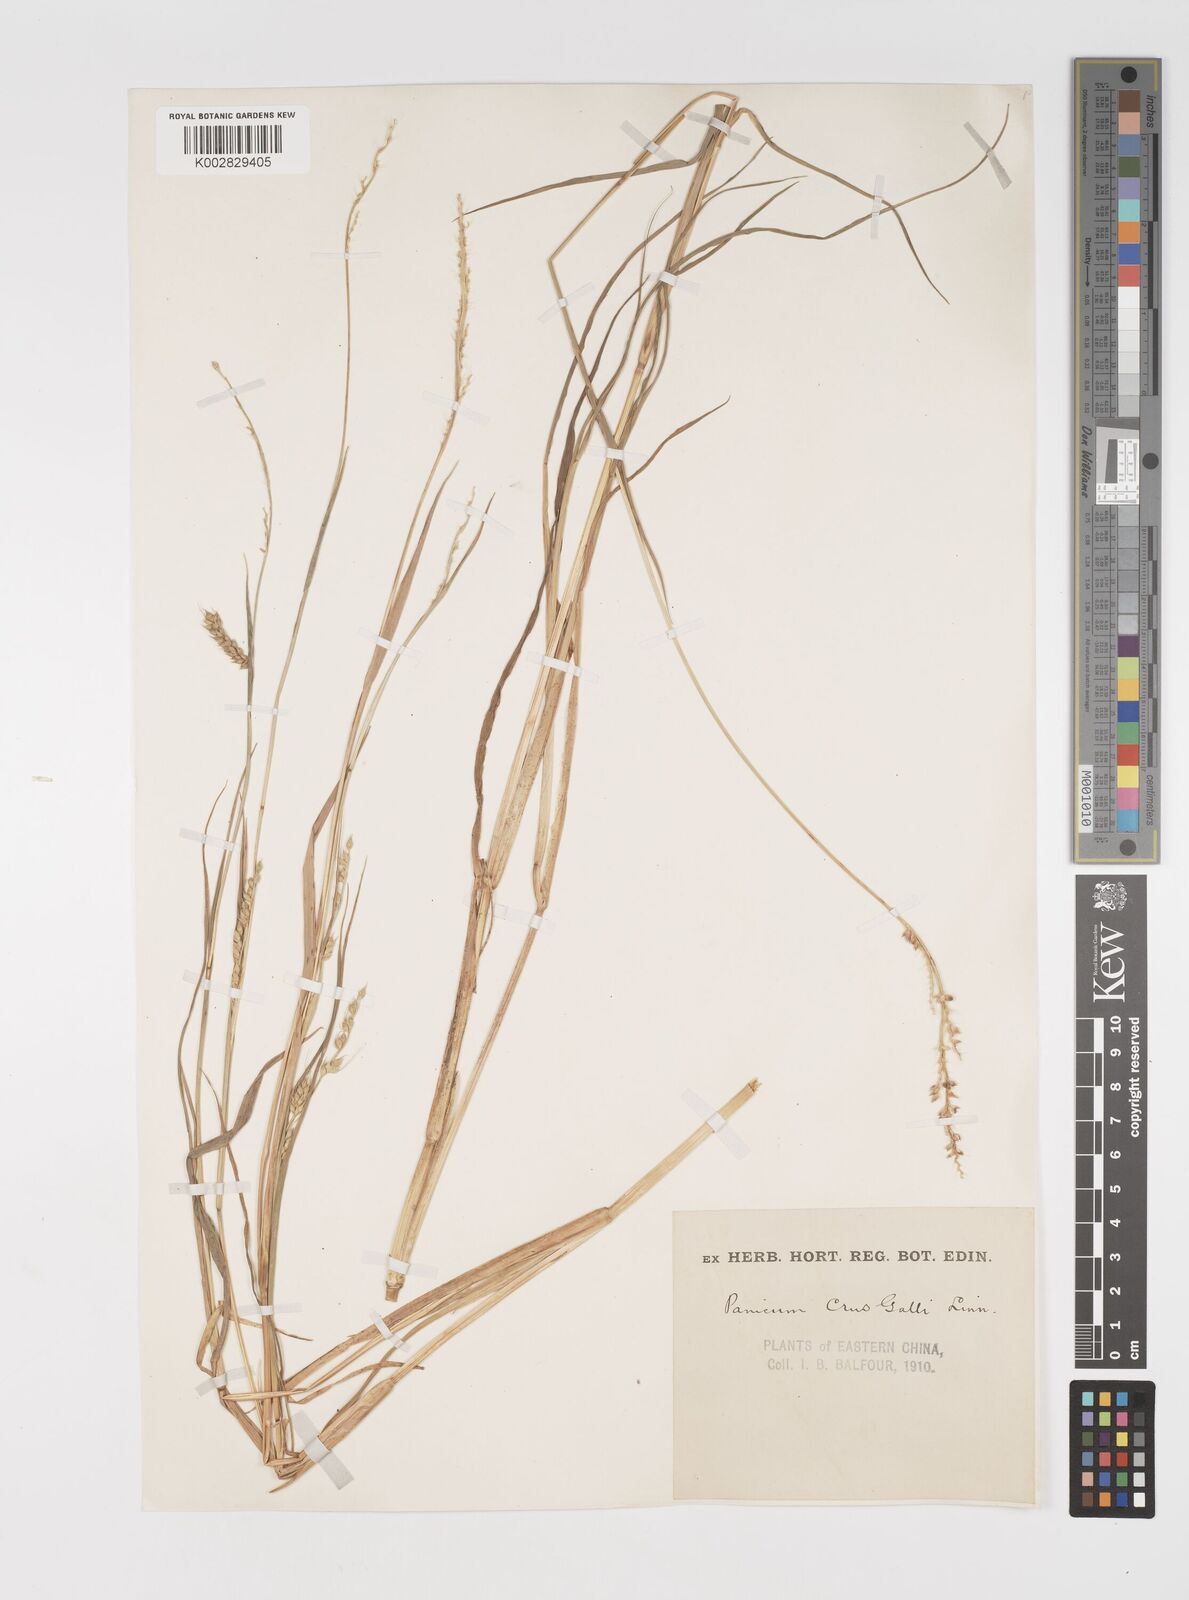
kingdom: Plantae
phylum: Tracheophyta
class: Liliopsida
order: Poales
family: Poaceae
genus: Echinochloa
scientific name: Echinochloa crus-galli
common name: Cockspur
